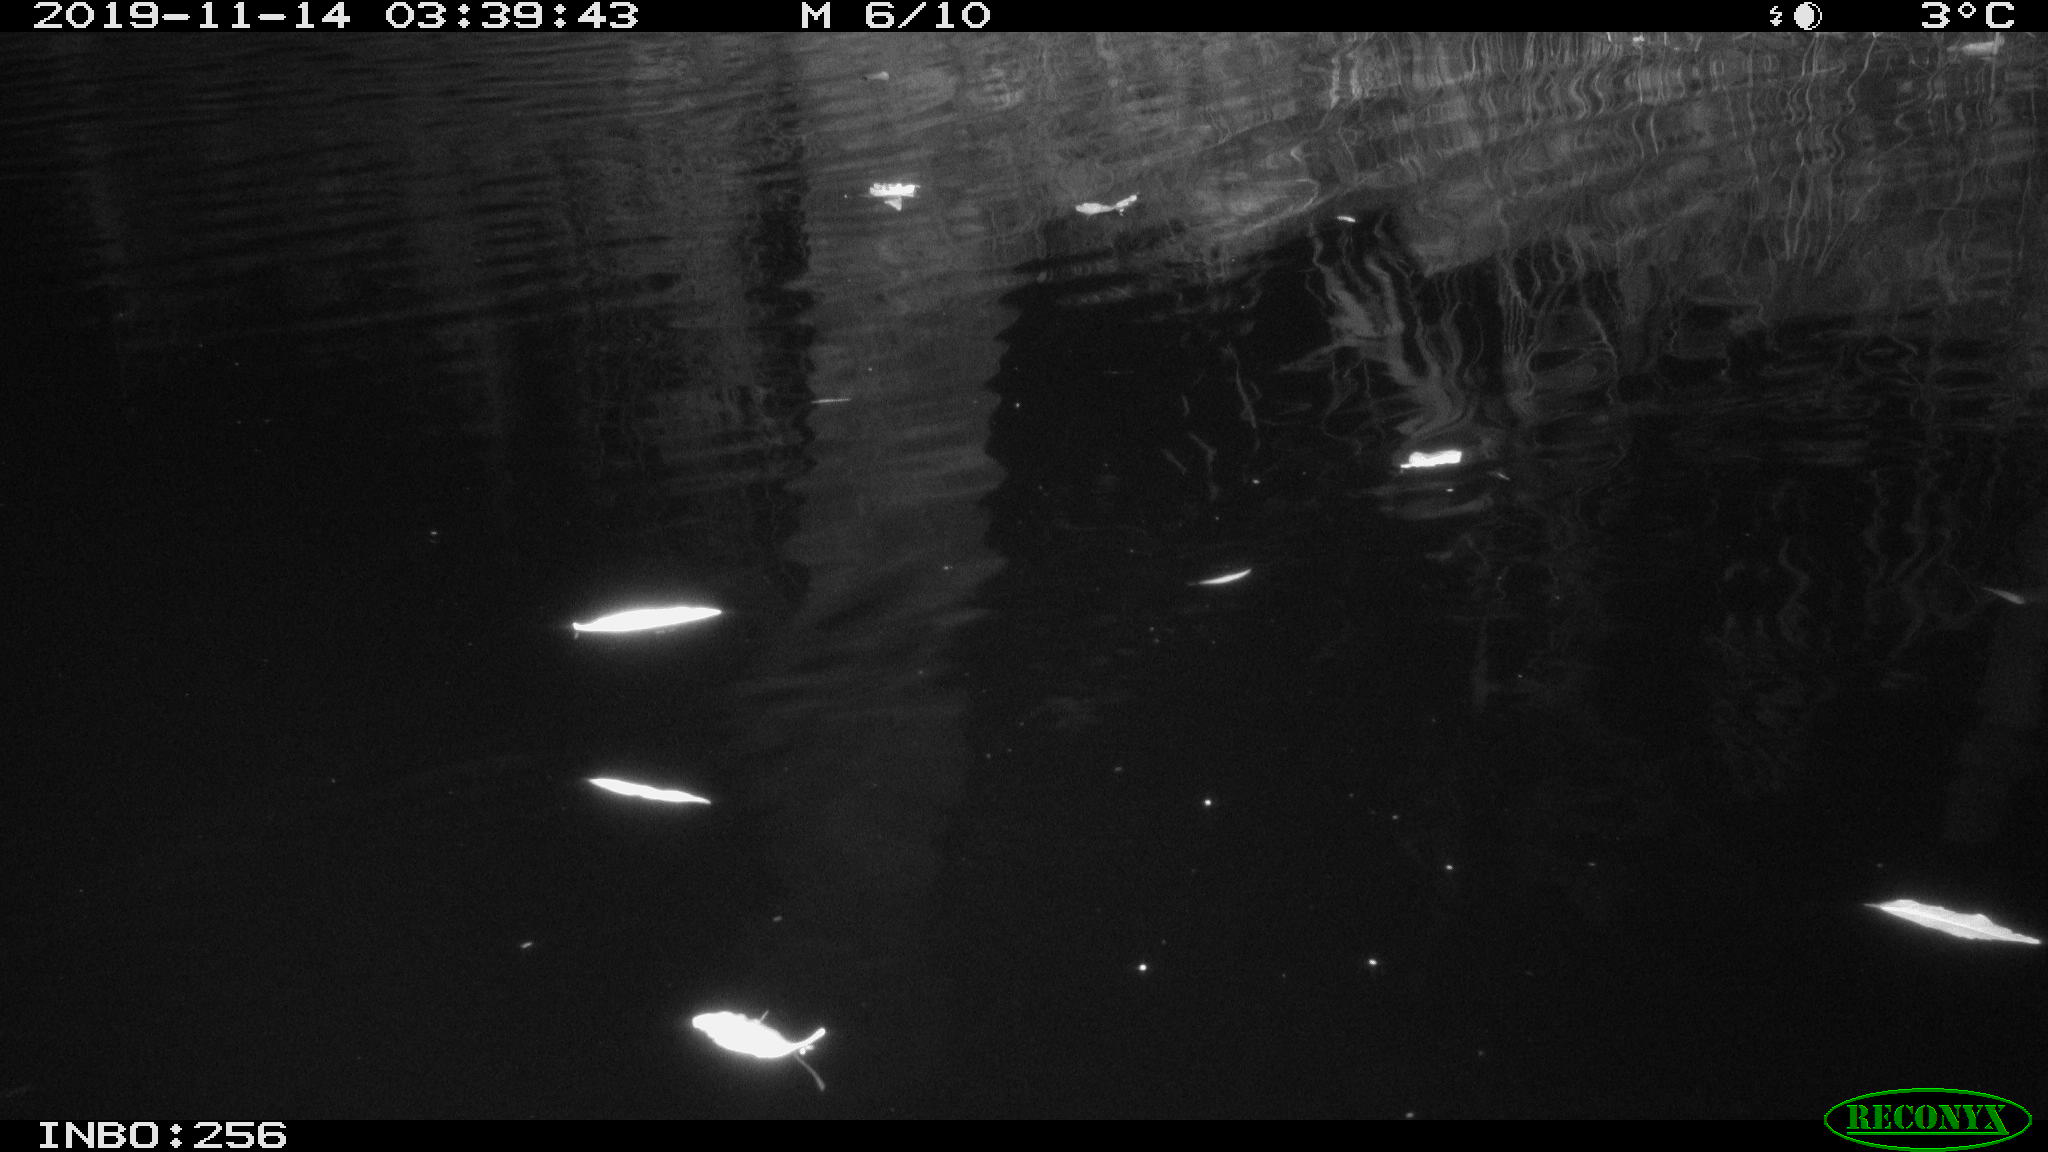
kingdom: Animalia
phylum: Chordata
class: Mammalia
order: Rodentia
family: Cricetidae
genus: Ondatra
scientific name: Ondatra zibethicus
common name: Muskrat
